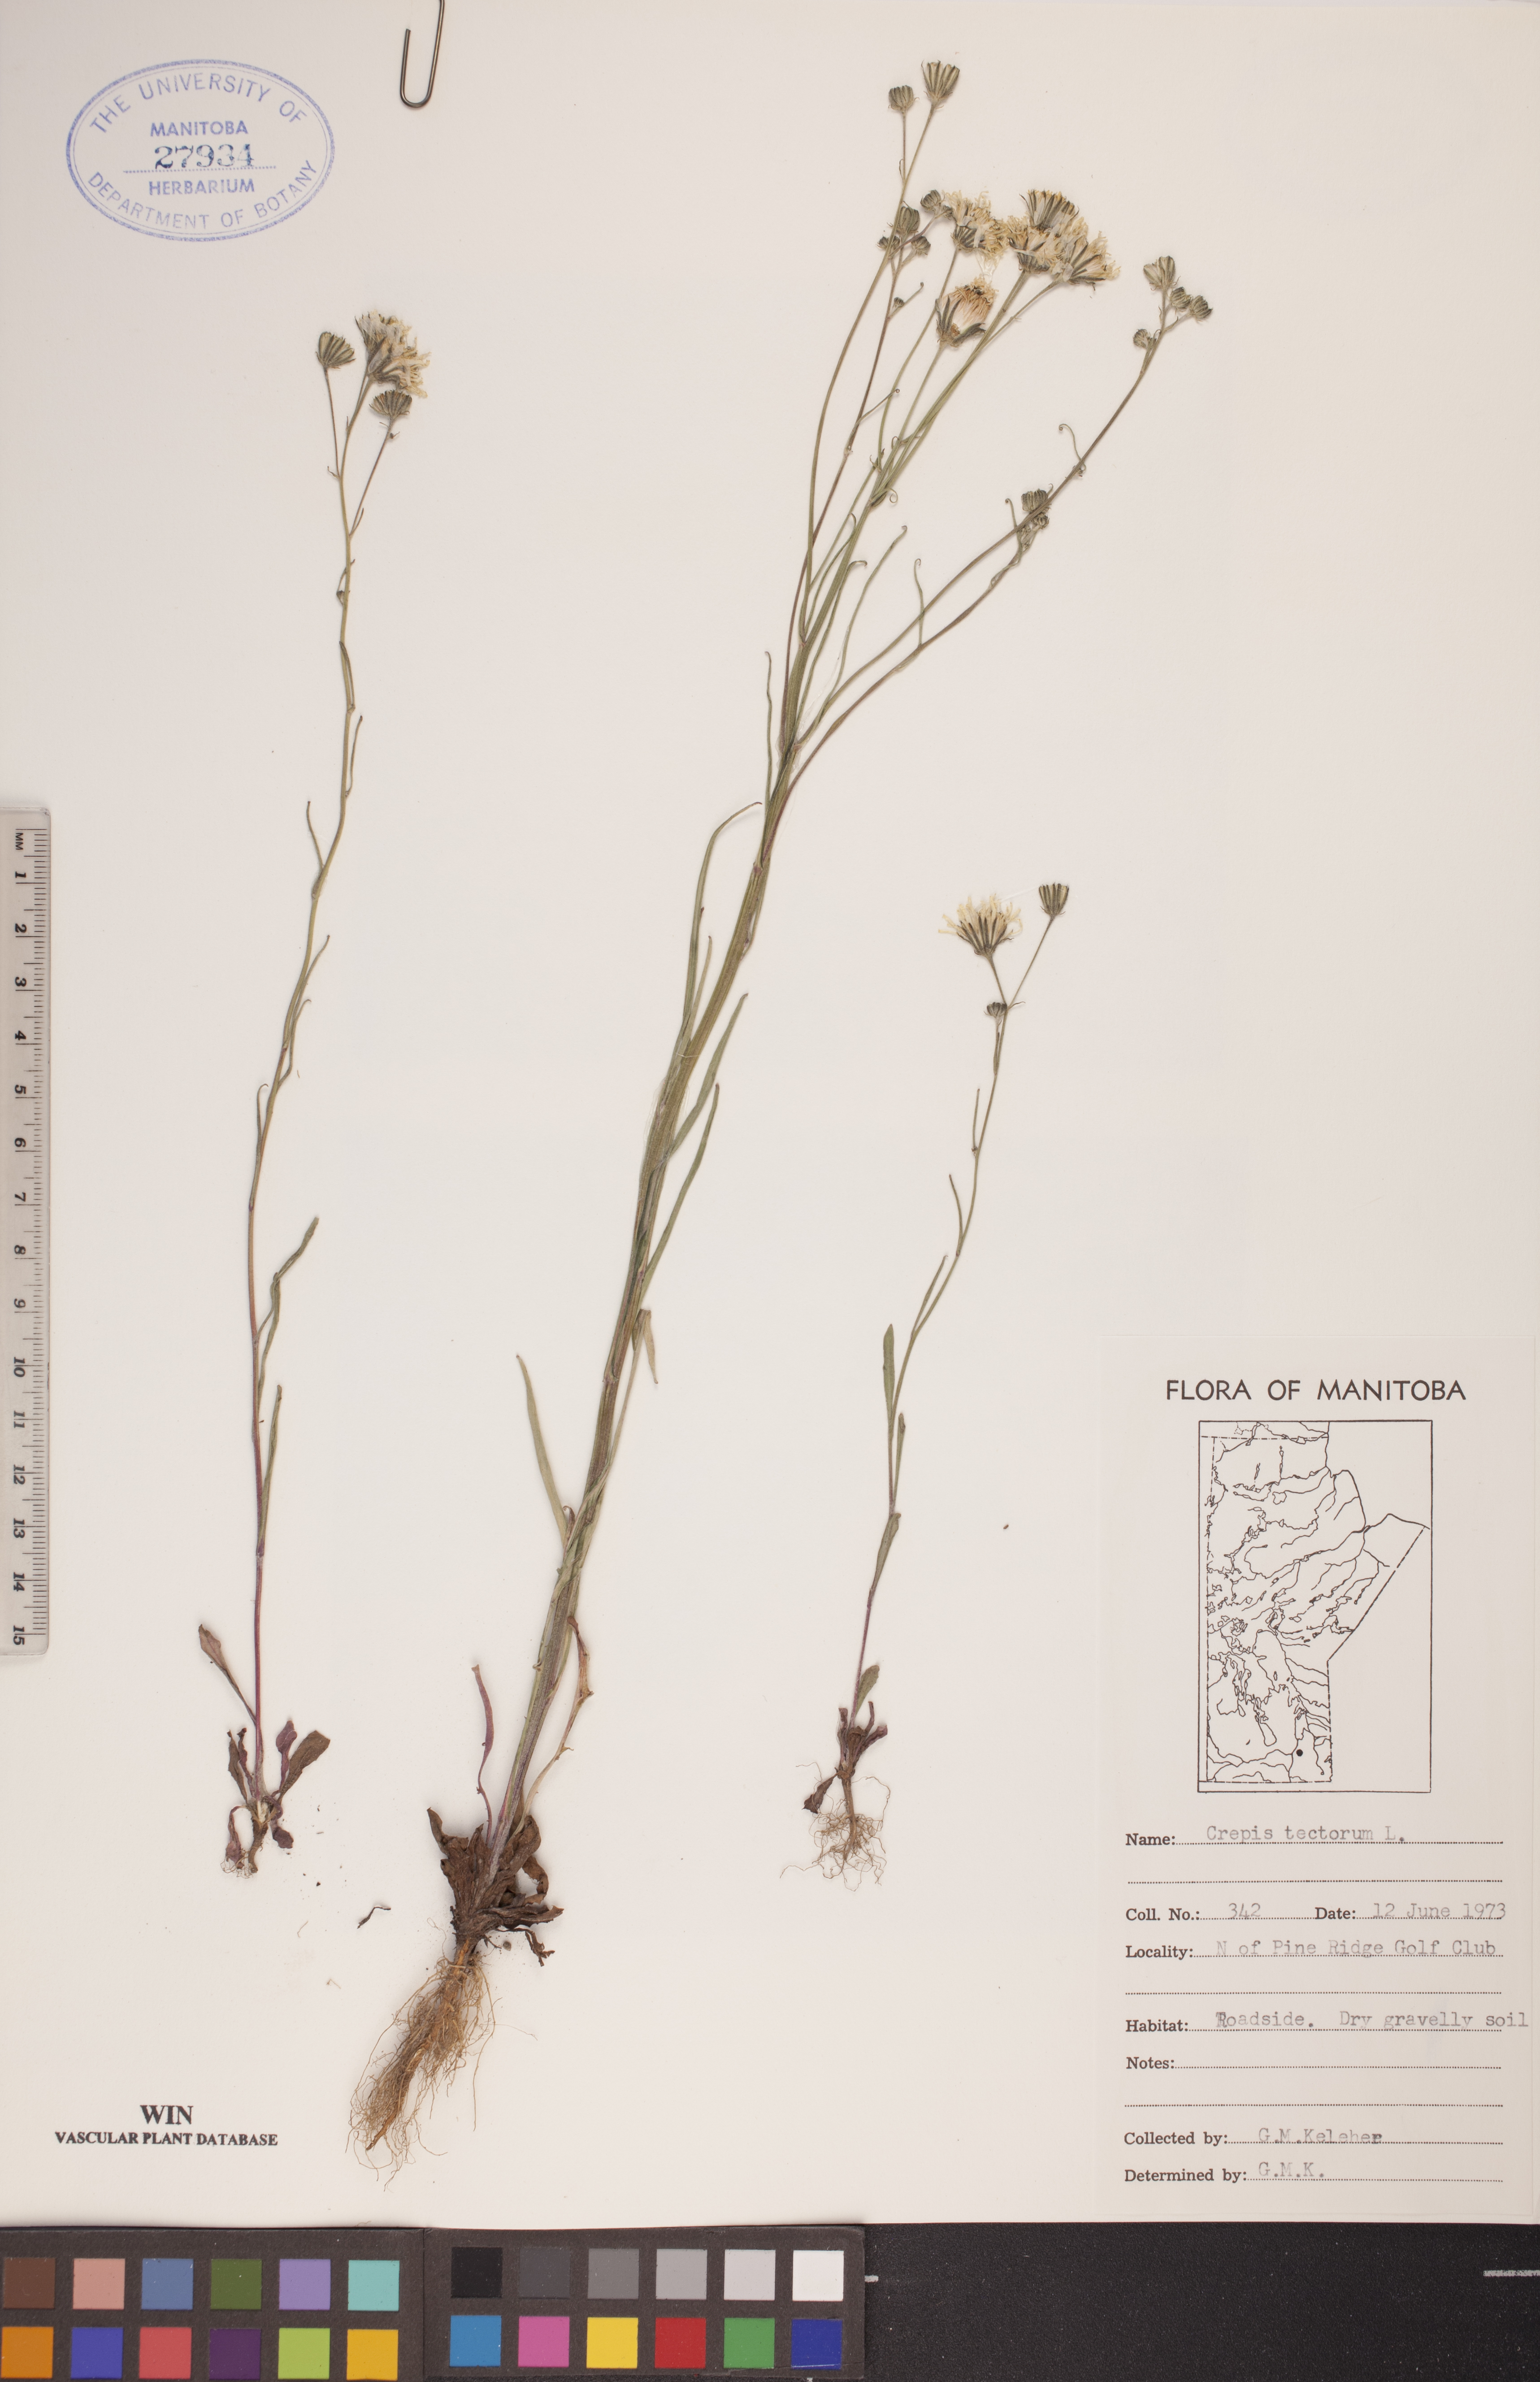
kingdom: Plantae
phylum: Tracheophyta
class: Magnoliopsida
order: Asterales
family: Asteraceae
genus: Crepis
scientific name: Crepis tectorum
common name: Narrow-leaved hawk's-beard
